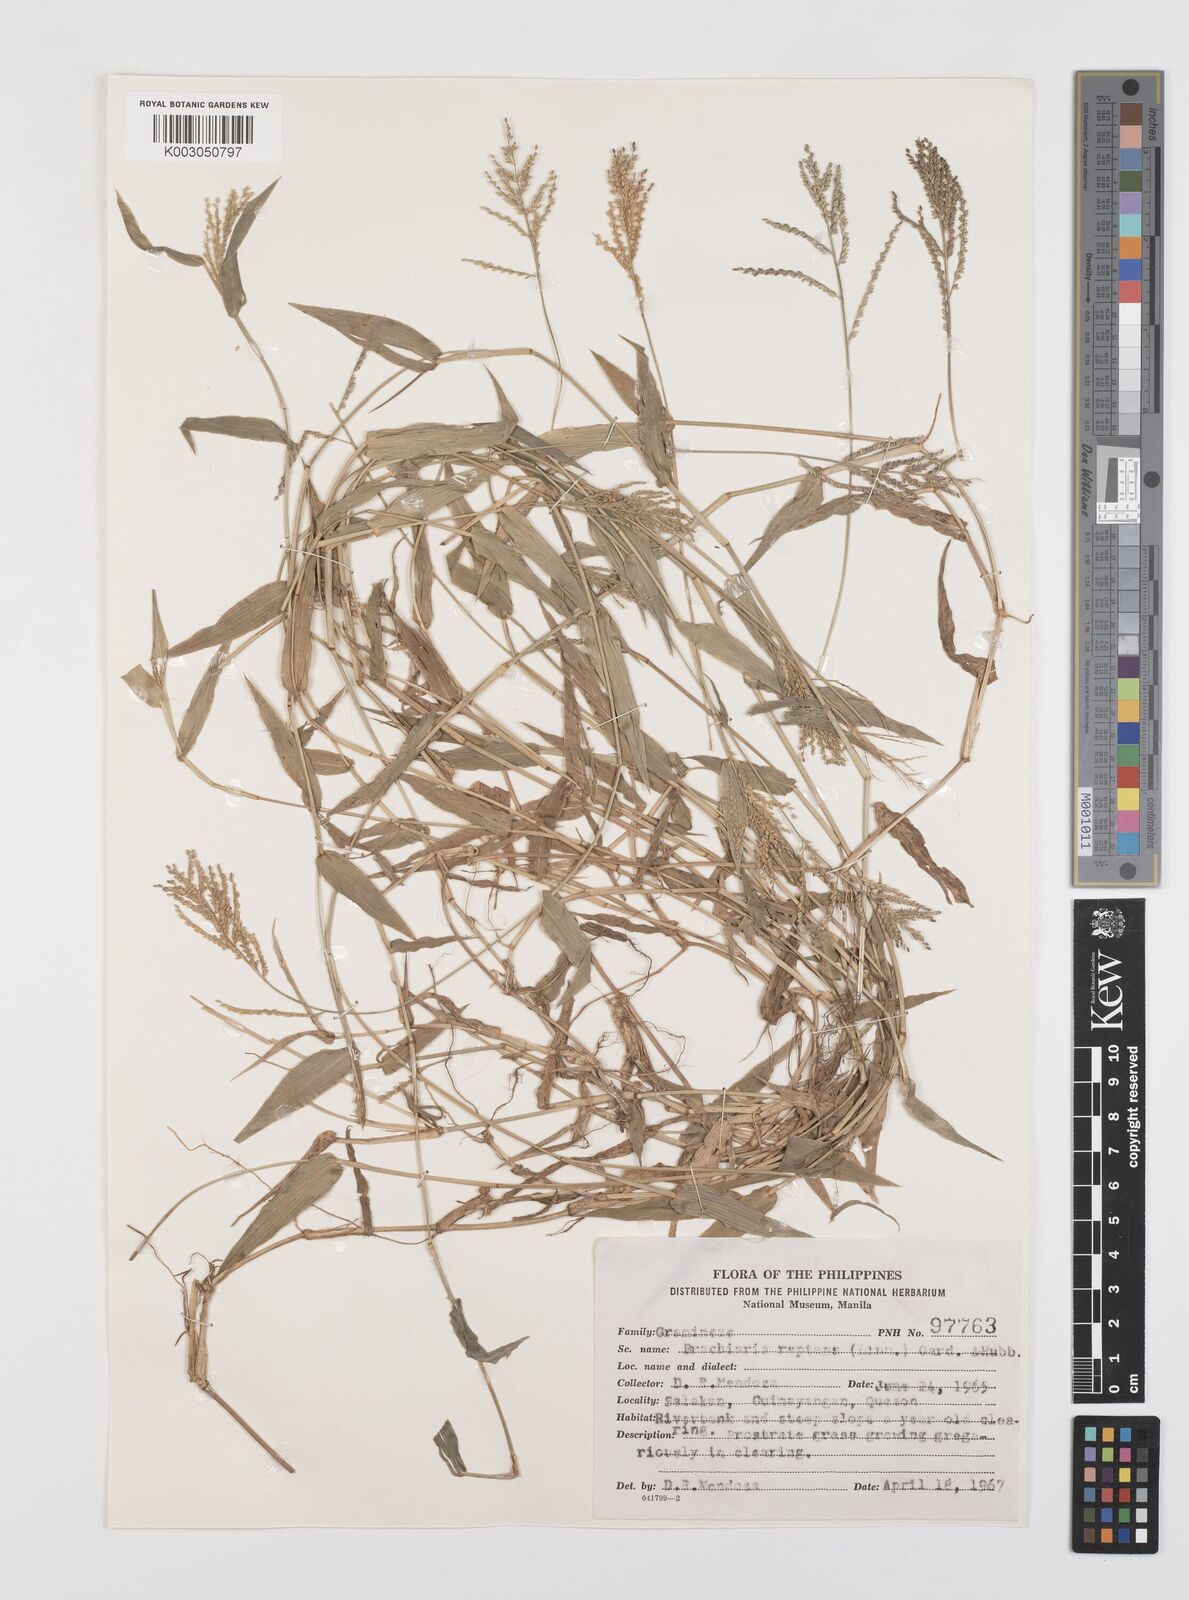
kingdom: Plantae
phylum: Tracheophyta
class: Liliopsida
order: Poales
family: Poaceae
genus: Urochloa
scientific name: Urochloa reptans
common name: Sprawling signalgrass
